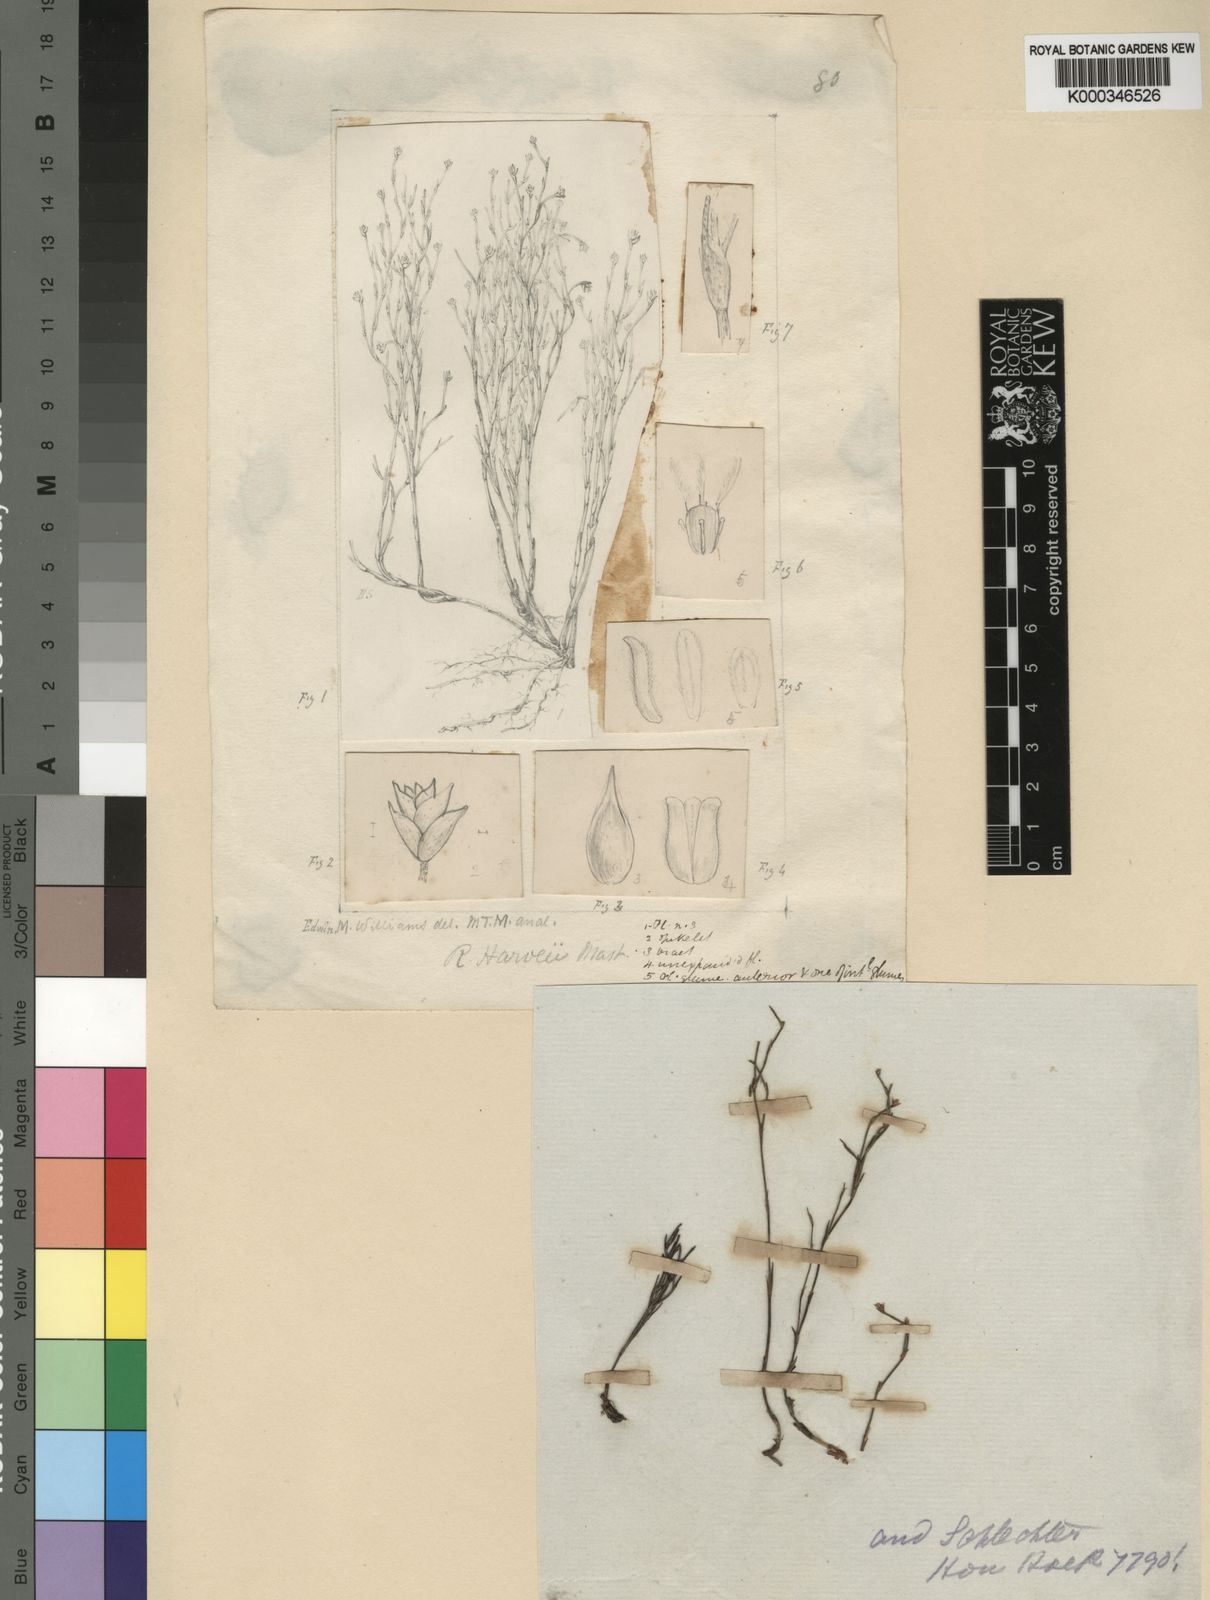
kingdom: Plantae
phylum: Tracheophyta
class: Liliopsida
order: Poales
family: Restionaceae
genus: Restio
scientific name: Restio
